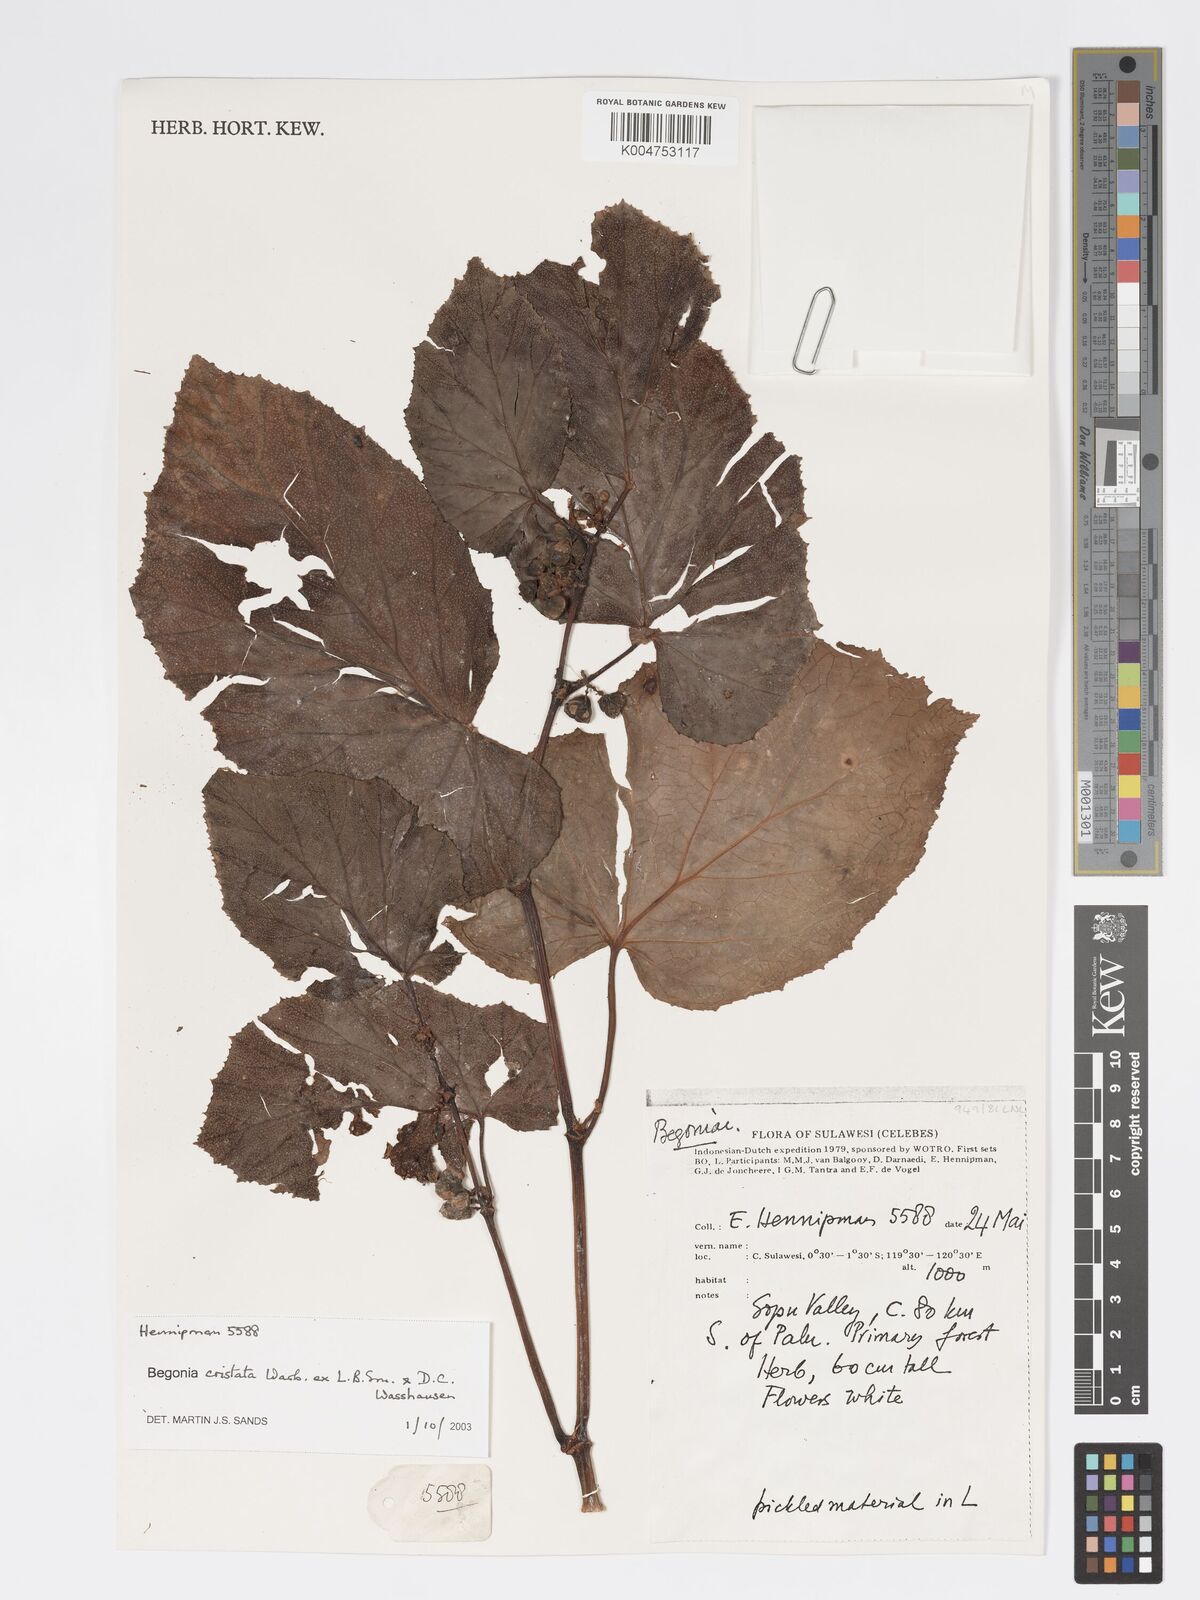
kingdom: Plantae
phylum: Tracheophyta
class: Magnoliopsida
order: Cucurbitales
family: Begoniaceae
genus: Begonia
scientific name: Begonia
